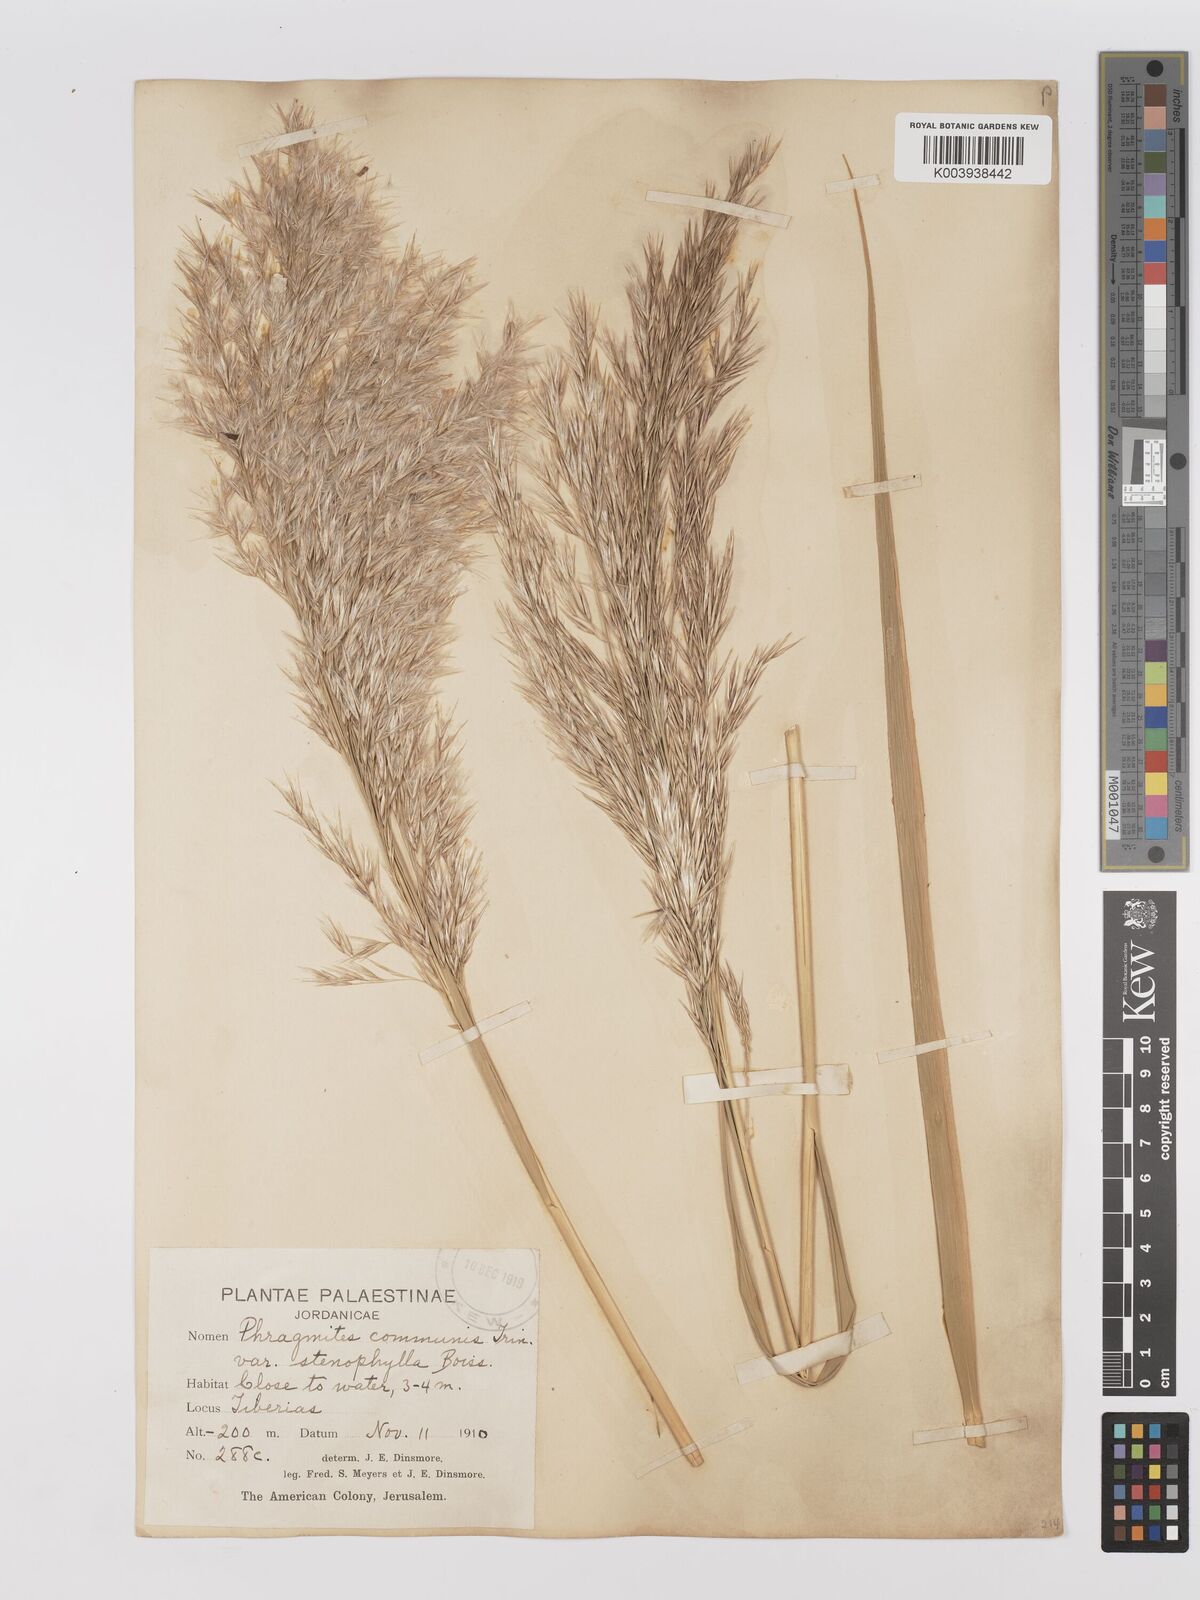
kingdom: Plantae
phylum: Tracheophyta
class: Liliopsida
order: Poales
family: Poaceae
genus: Phragmites
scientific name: Phragmites australis
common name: Common reed
